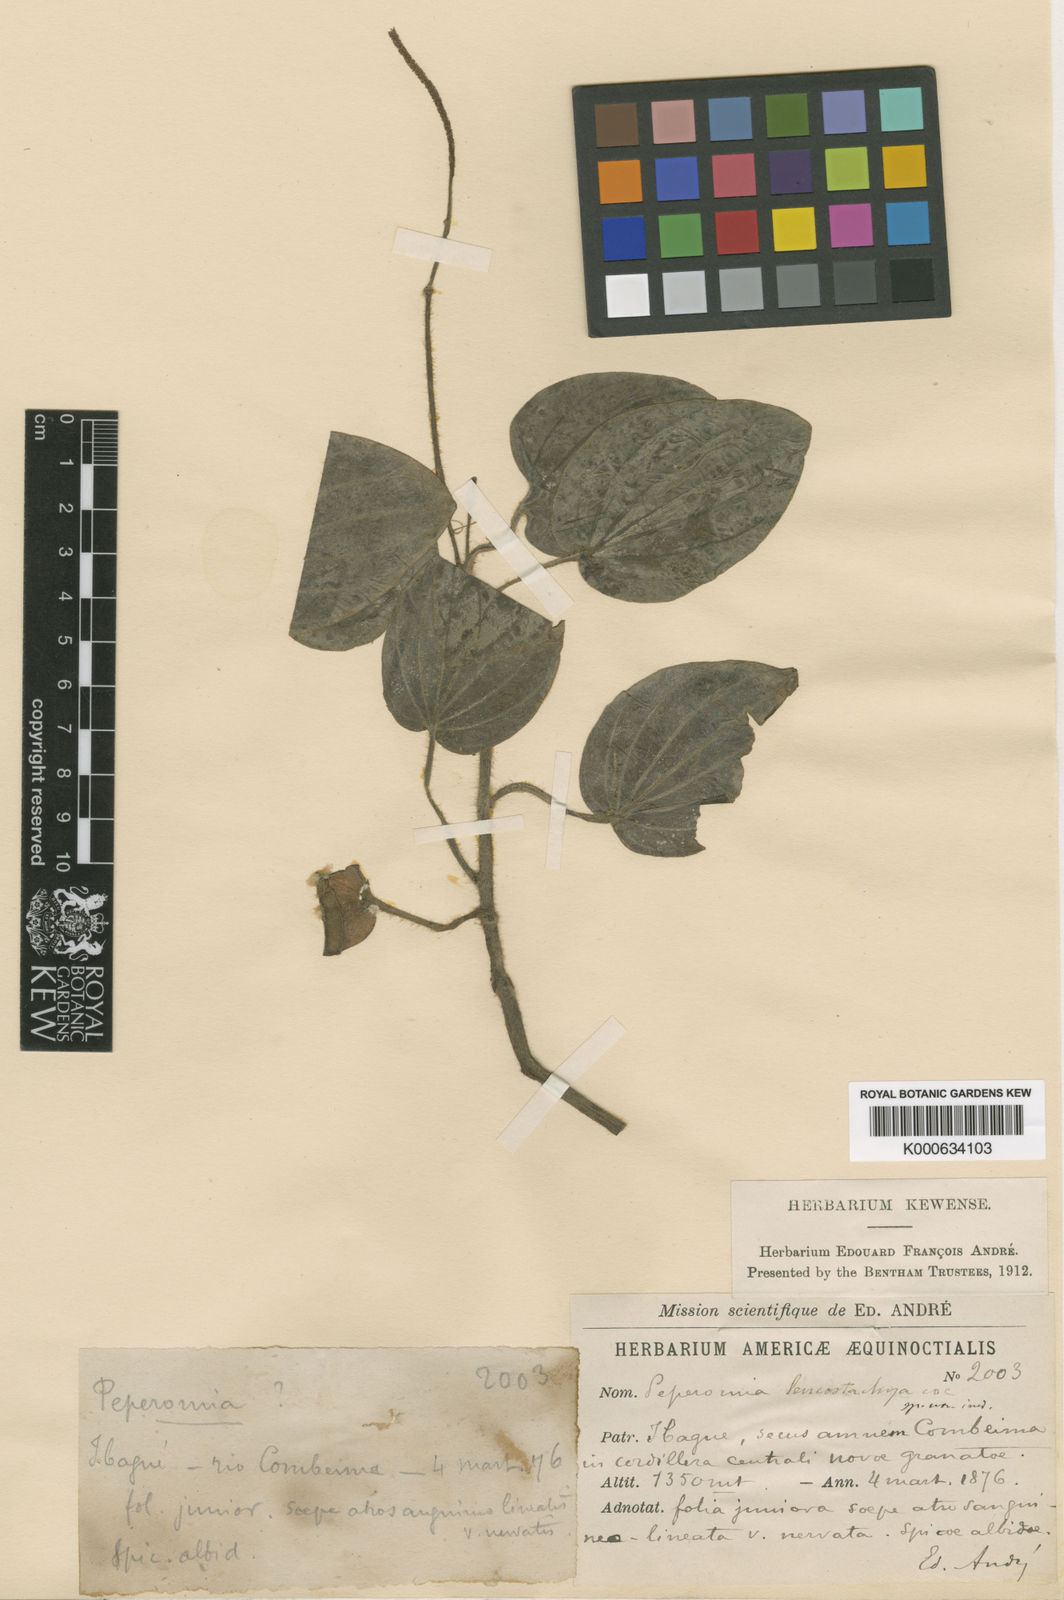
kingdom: Plantae
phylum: Tracheophyta
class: Magnoliopsida
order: Piperales
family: Piperaceae
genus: Peperomia
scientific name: Peperomia leucostachya
